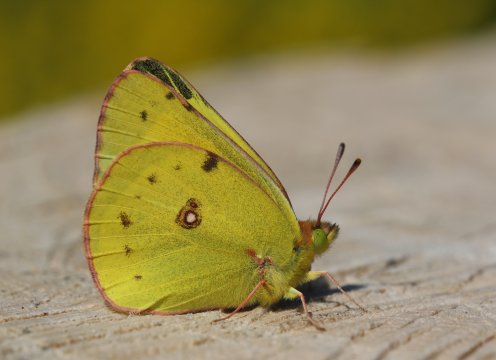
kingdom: Animalia
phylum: Arthropoda
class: Insecta
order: Lepidoptera
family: Pieridae
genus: Colias
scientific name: Colias eurytheme
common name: Orange Sulphur
